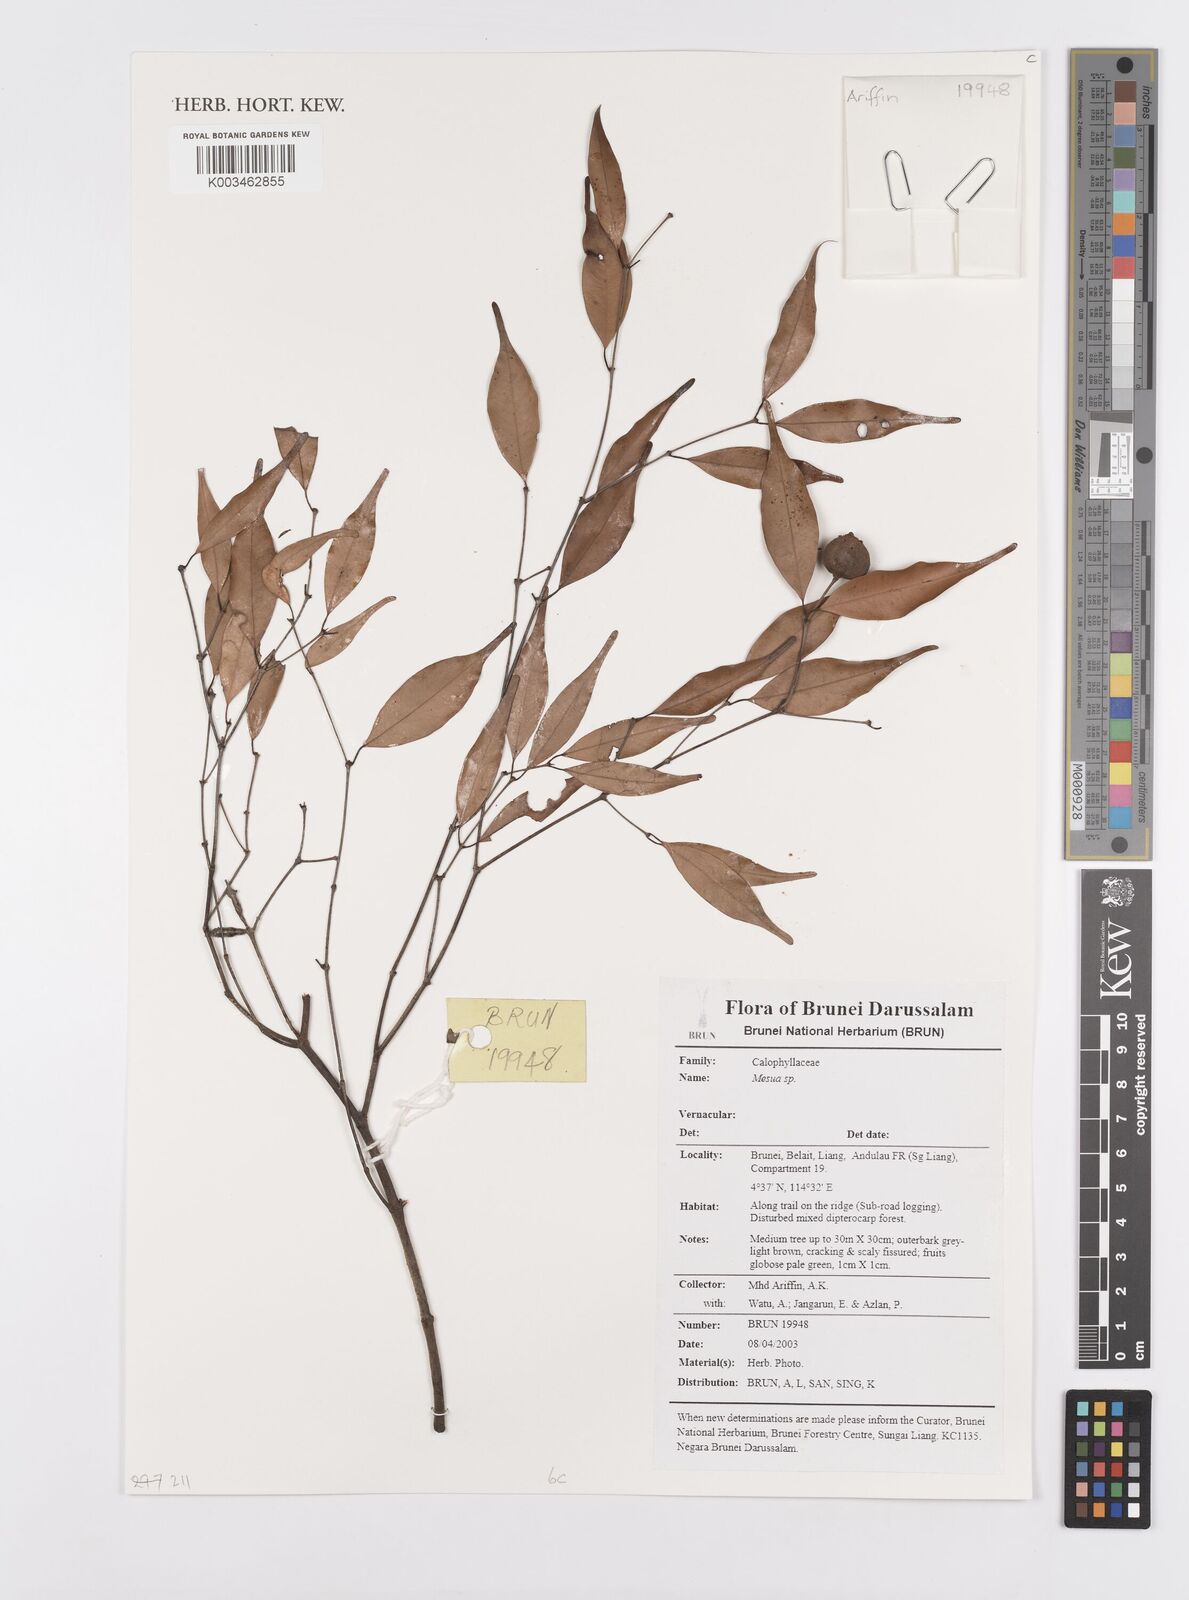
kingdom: Plantae
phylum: Tracheophyta
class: Magnoliopsida
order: Malpighiales
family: Calophyllaceae
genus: Mesua
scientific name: Mesua
